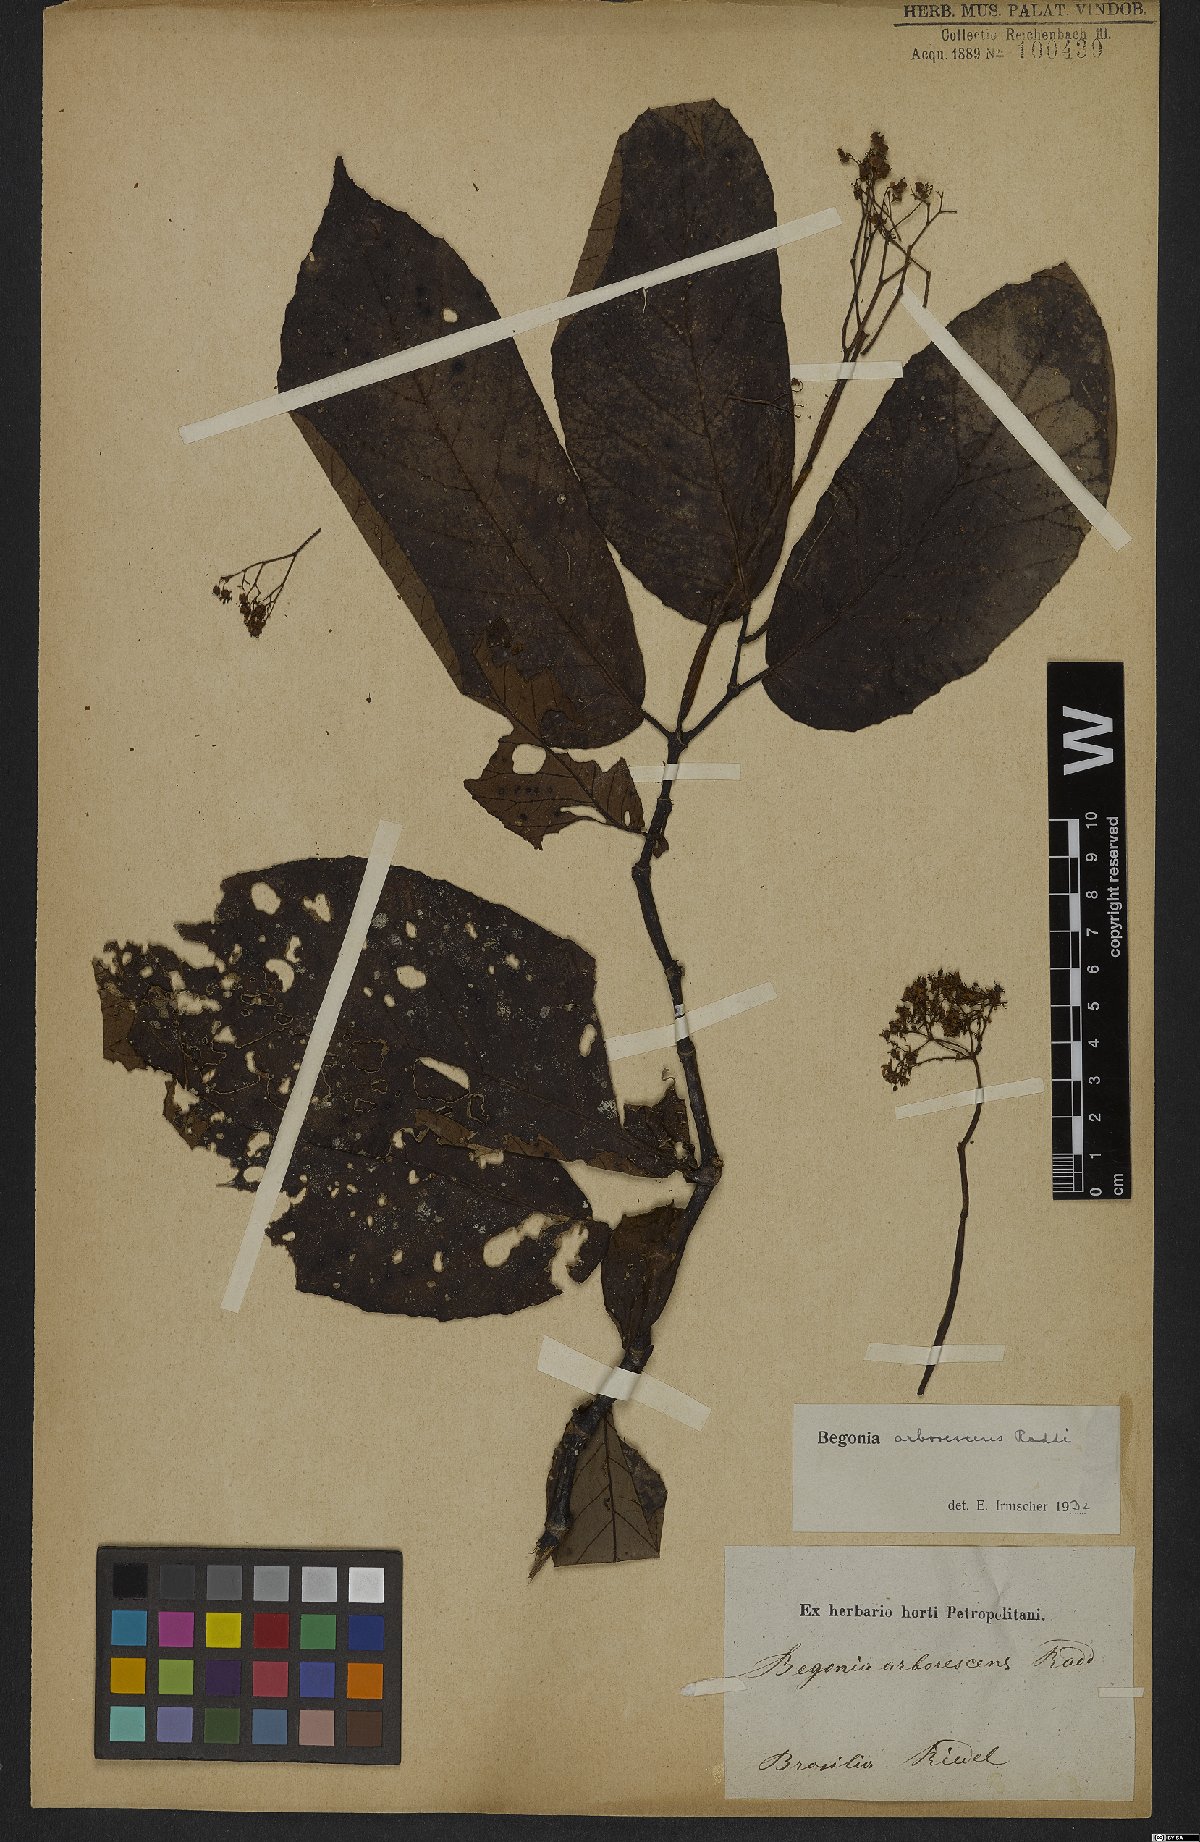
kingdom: Plantae
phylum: Tracheophyta
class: Magnoliopsida
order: Cucurbitales
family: Begoniaceae
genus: Begonia
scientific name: Begonia arborescens
